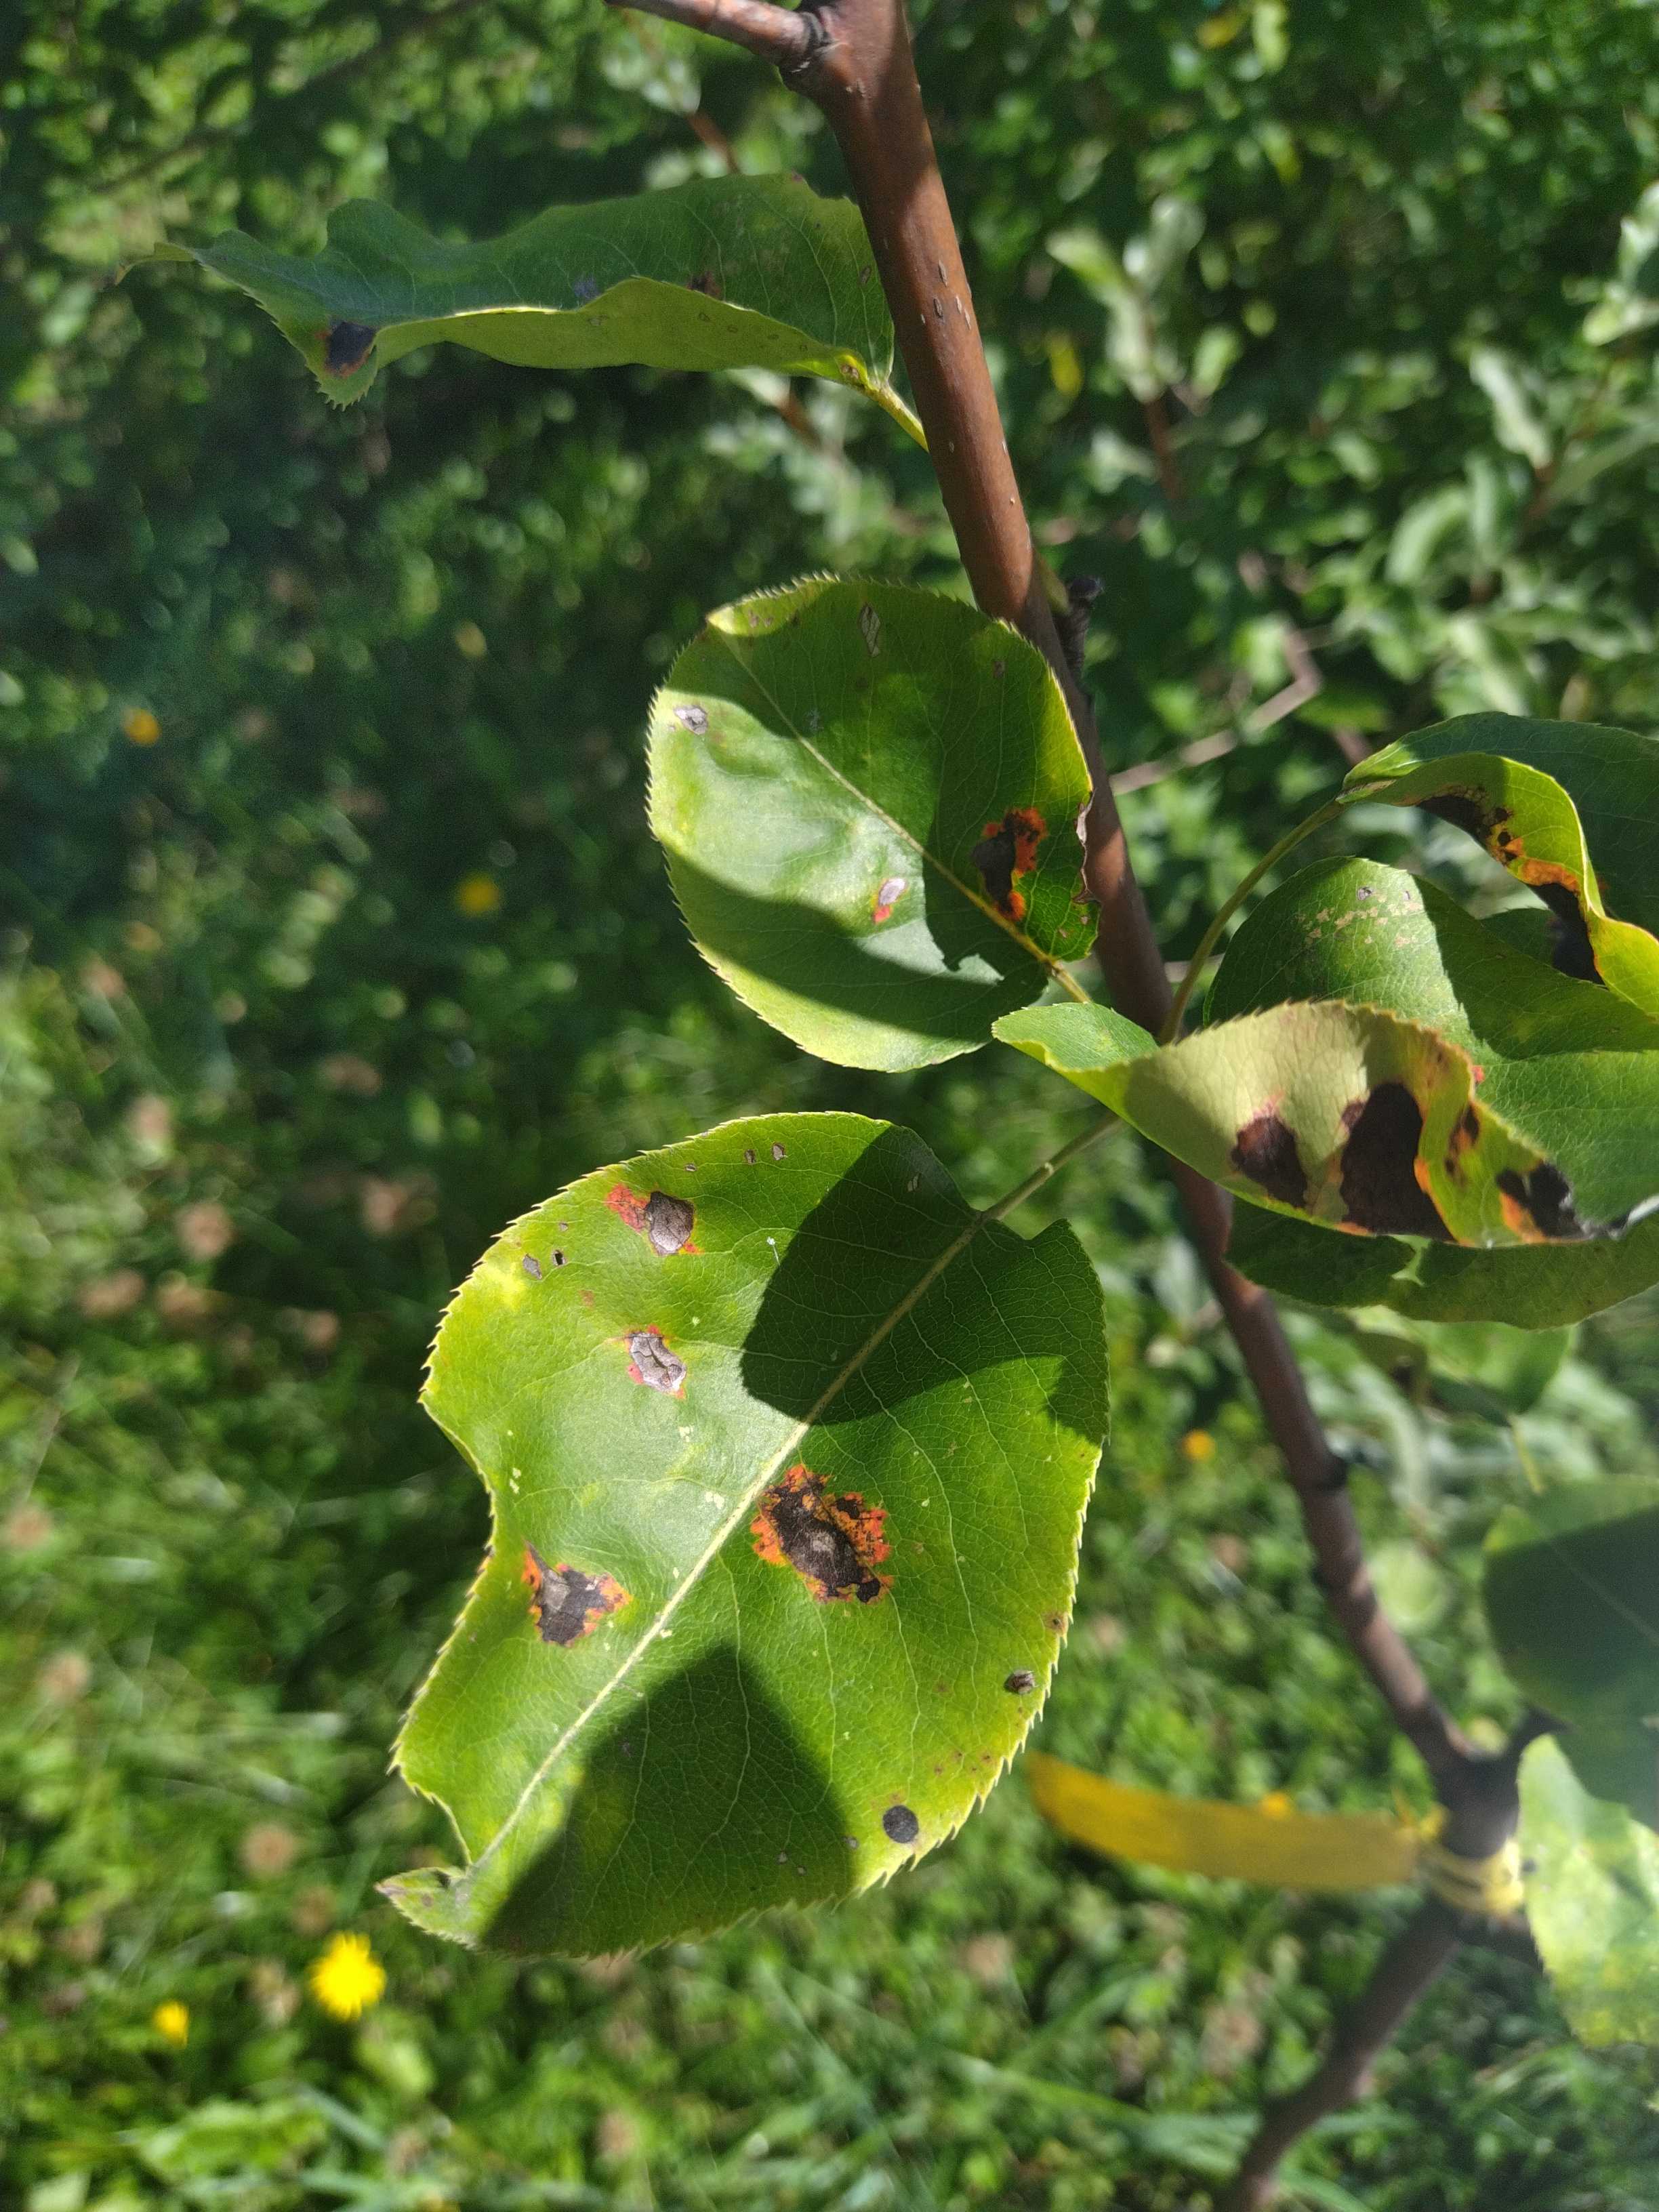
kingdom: Fungi
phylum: Basidiomycota
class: Pucciniomycetes
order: Pucciniales
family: Gymnosporangiaceae
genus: Gymnosporangium
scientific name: Gymnosporangium sabinae
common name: pæregitter-bævrerust
